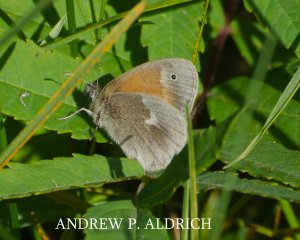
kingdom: Animalia
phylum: Arthropoda
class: Insecta
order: Lepidoptera
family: Nymphalidae
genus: Coenonympha
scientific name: Coenonympha tullia
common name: Large Heath
